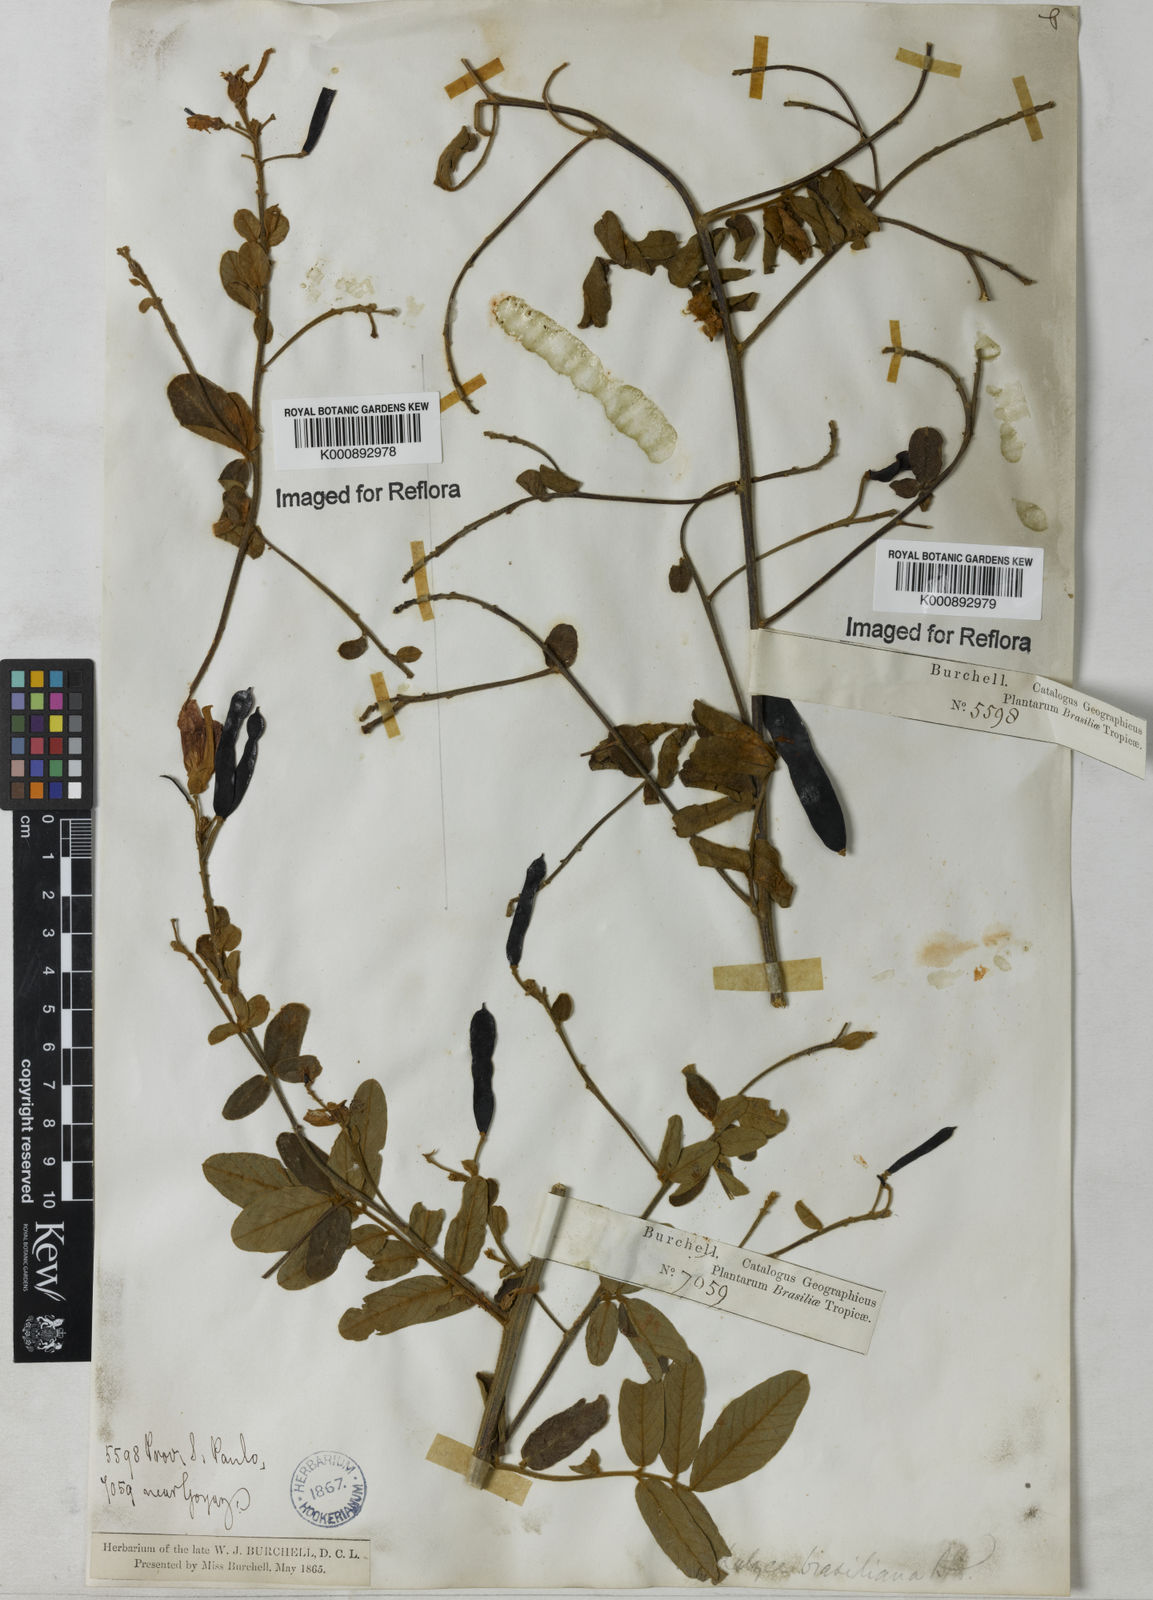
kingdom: Plantae
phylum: Tracheophyta
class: Magnoliopsida
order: Fabales
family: Fabaceae
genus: Harpalyce
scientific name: Harpalyce brasiliana
